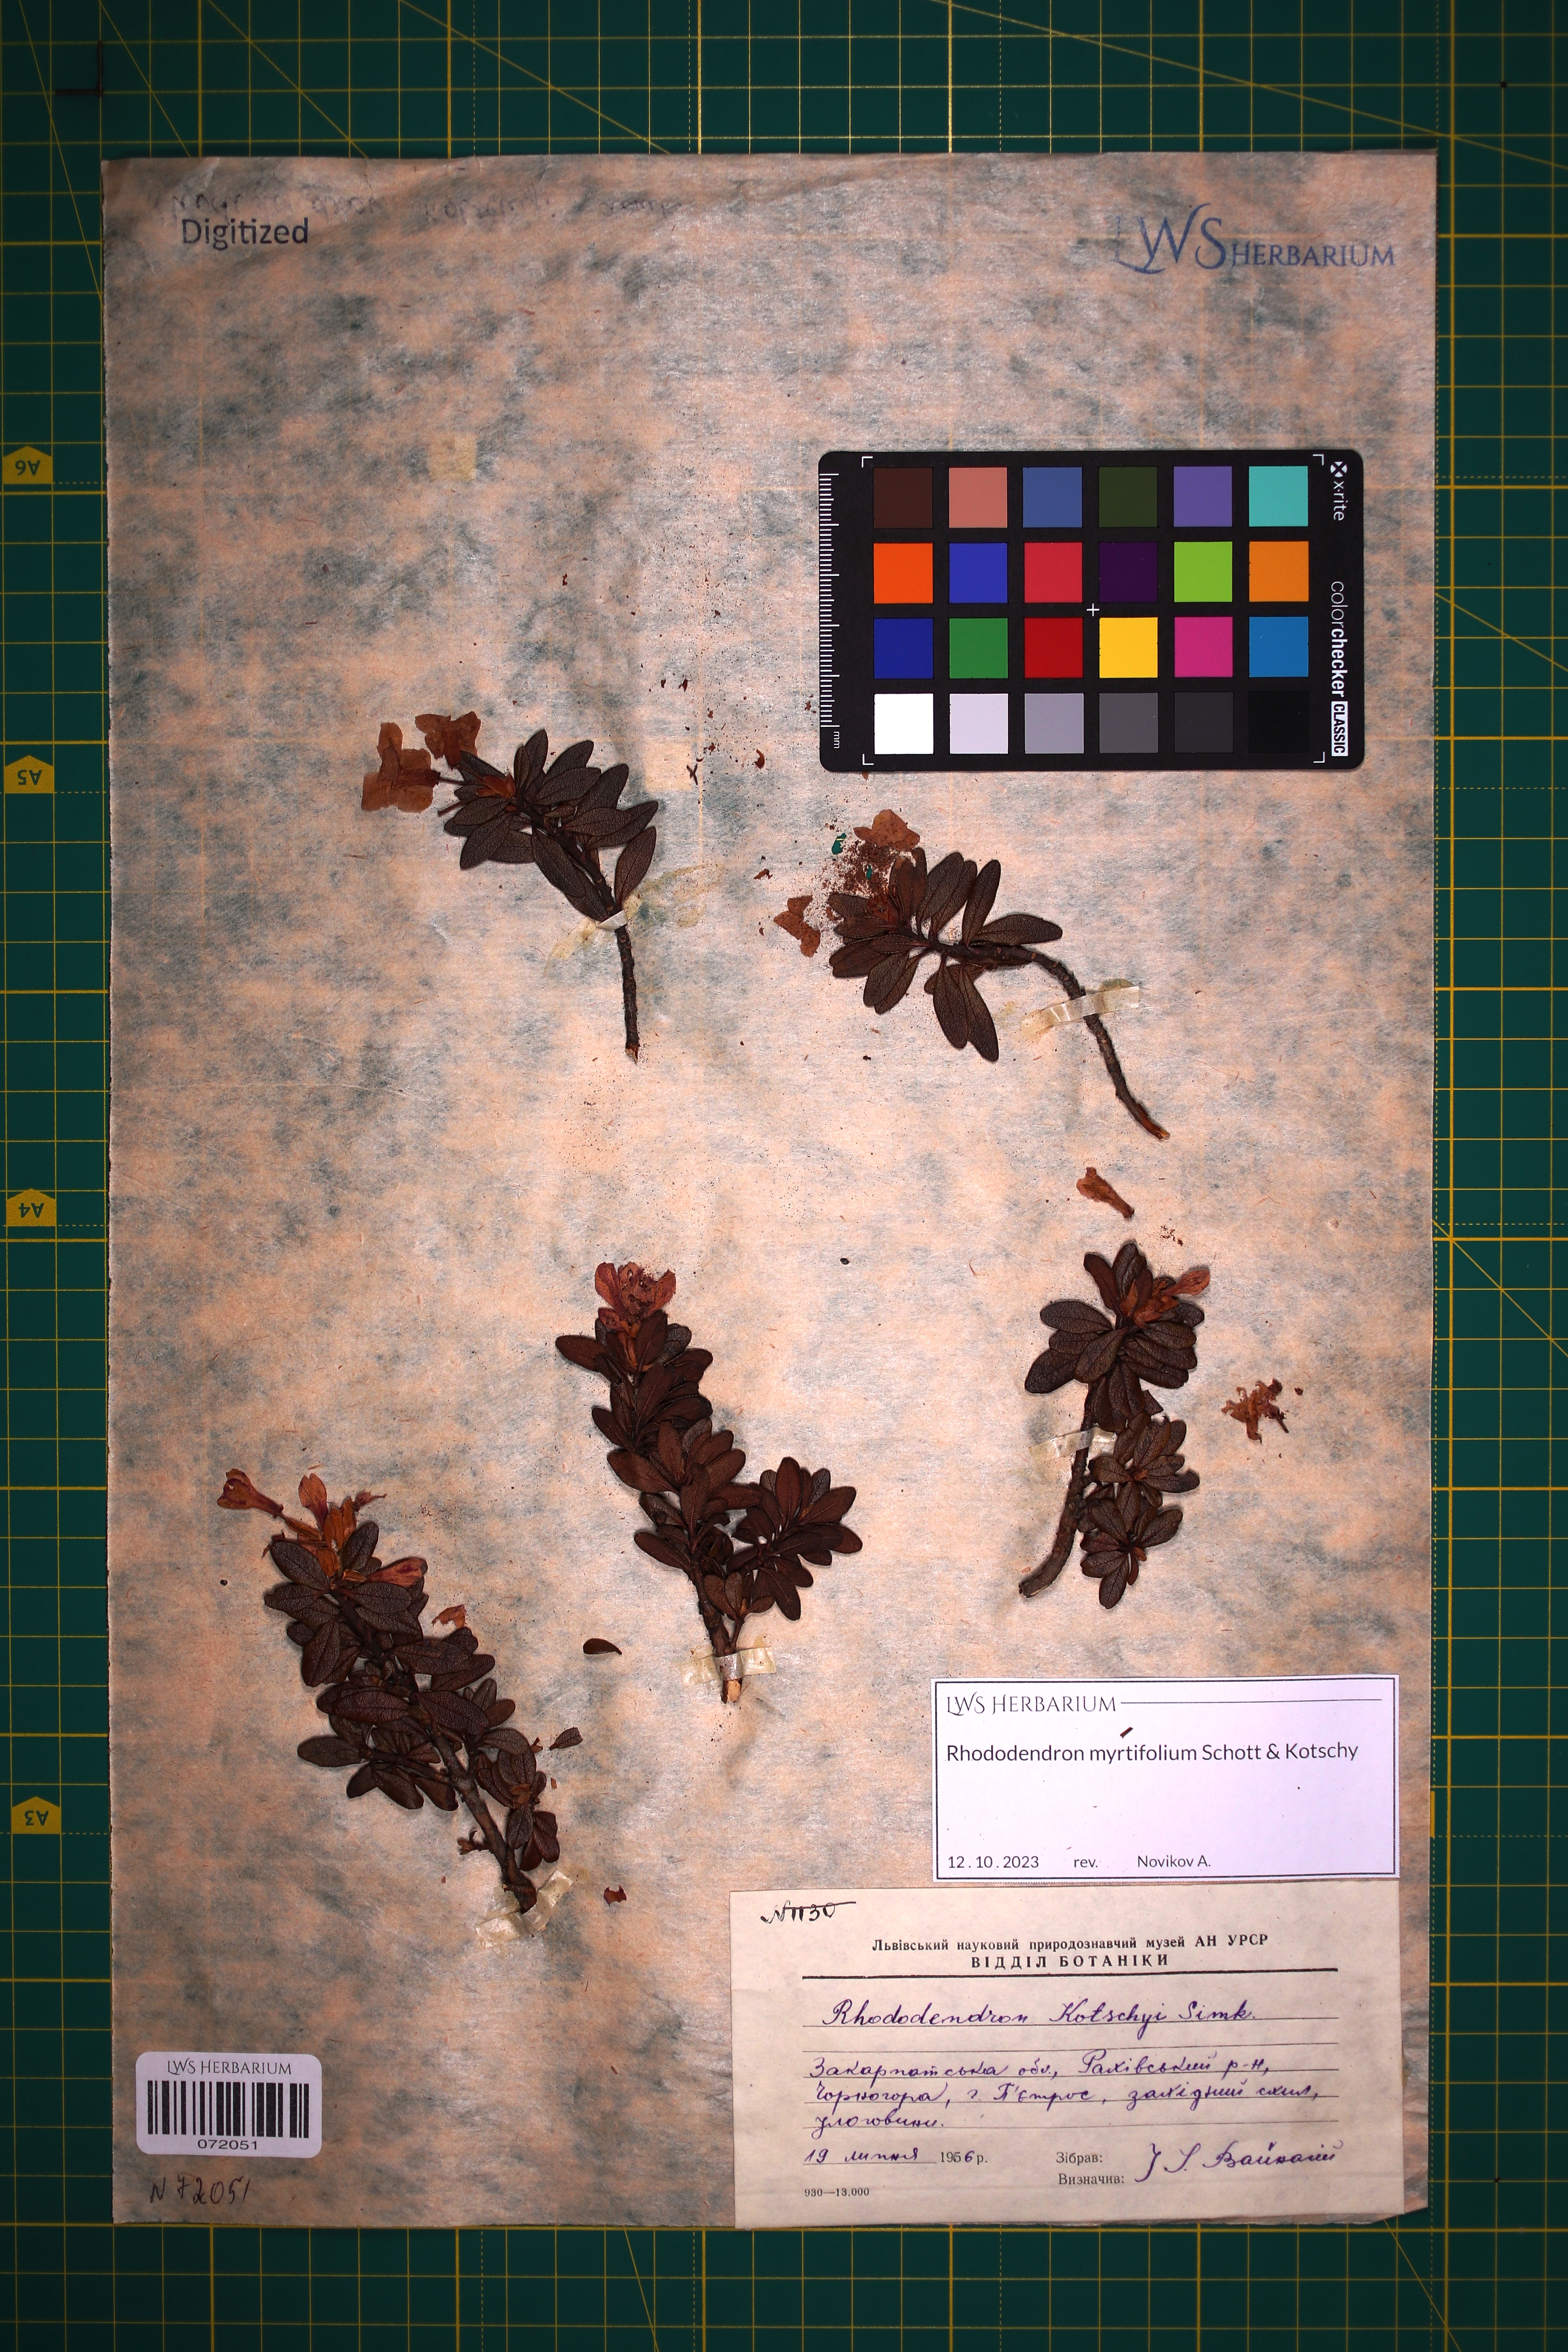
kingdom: Plantae
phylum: Tracheophyta
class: Magnoliopsida
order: Ericales
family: Ericaceae
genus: Rhododendron
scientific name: Rhododendron kotschyi
